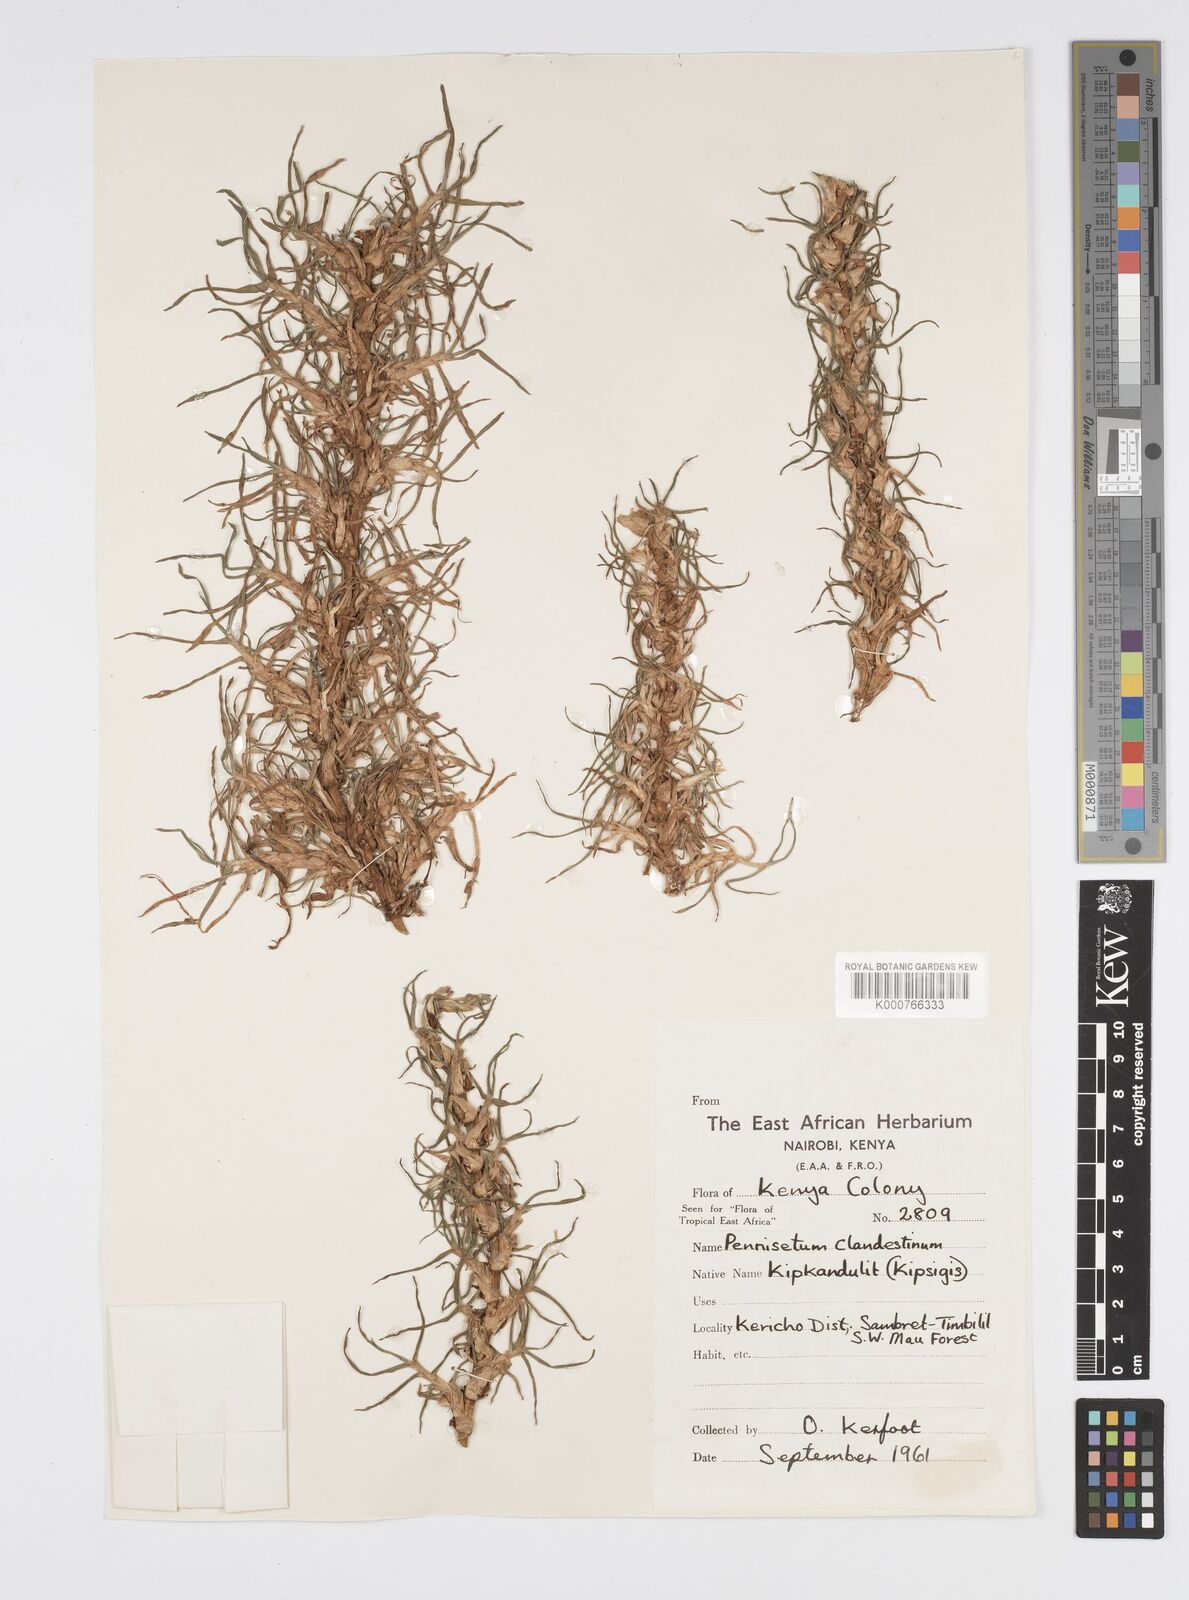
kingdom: Plantae
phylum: Tracheophyta
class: Liliopsida
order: Poales
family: Poaceae
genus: Cenchrus
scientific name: Cenchrus clandestinus
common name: Kikuyugrass
